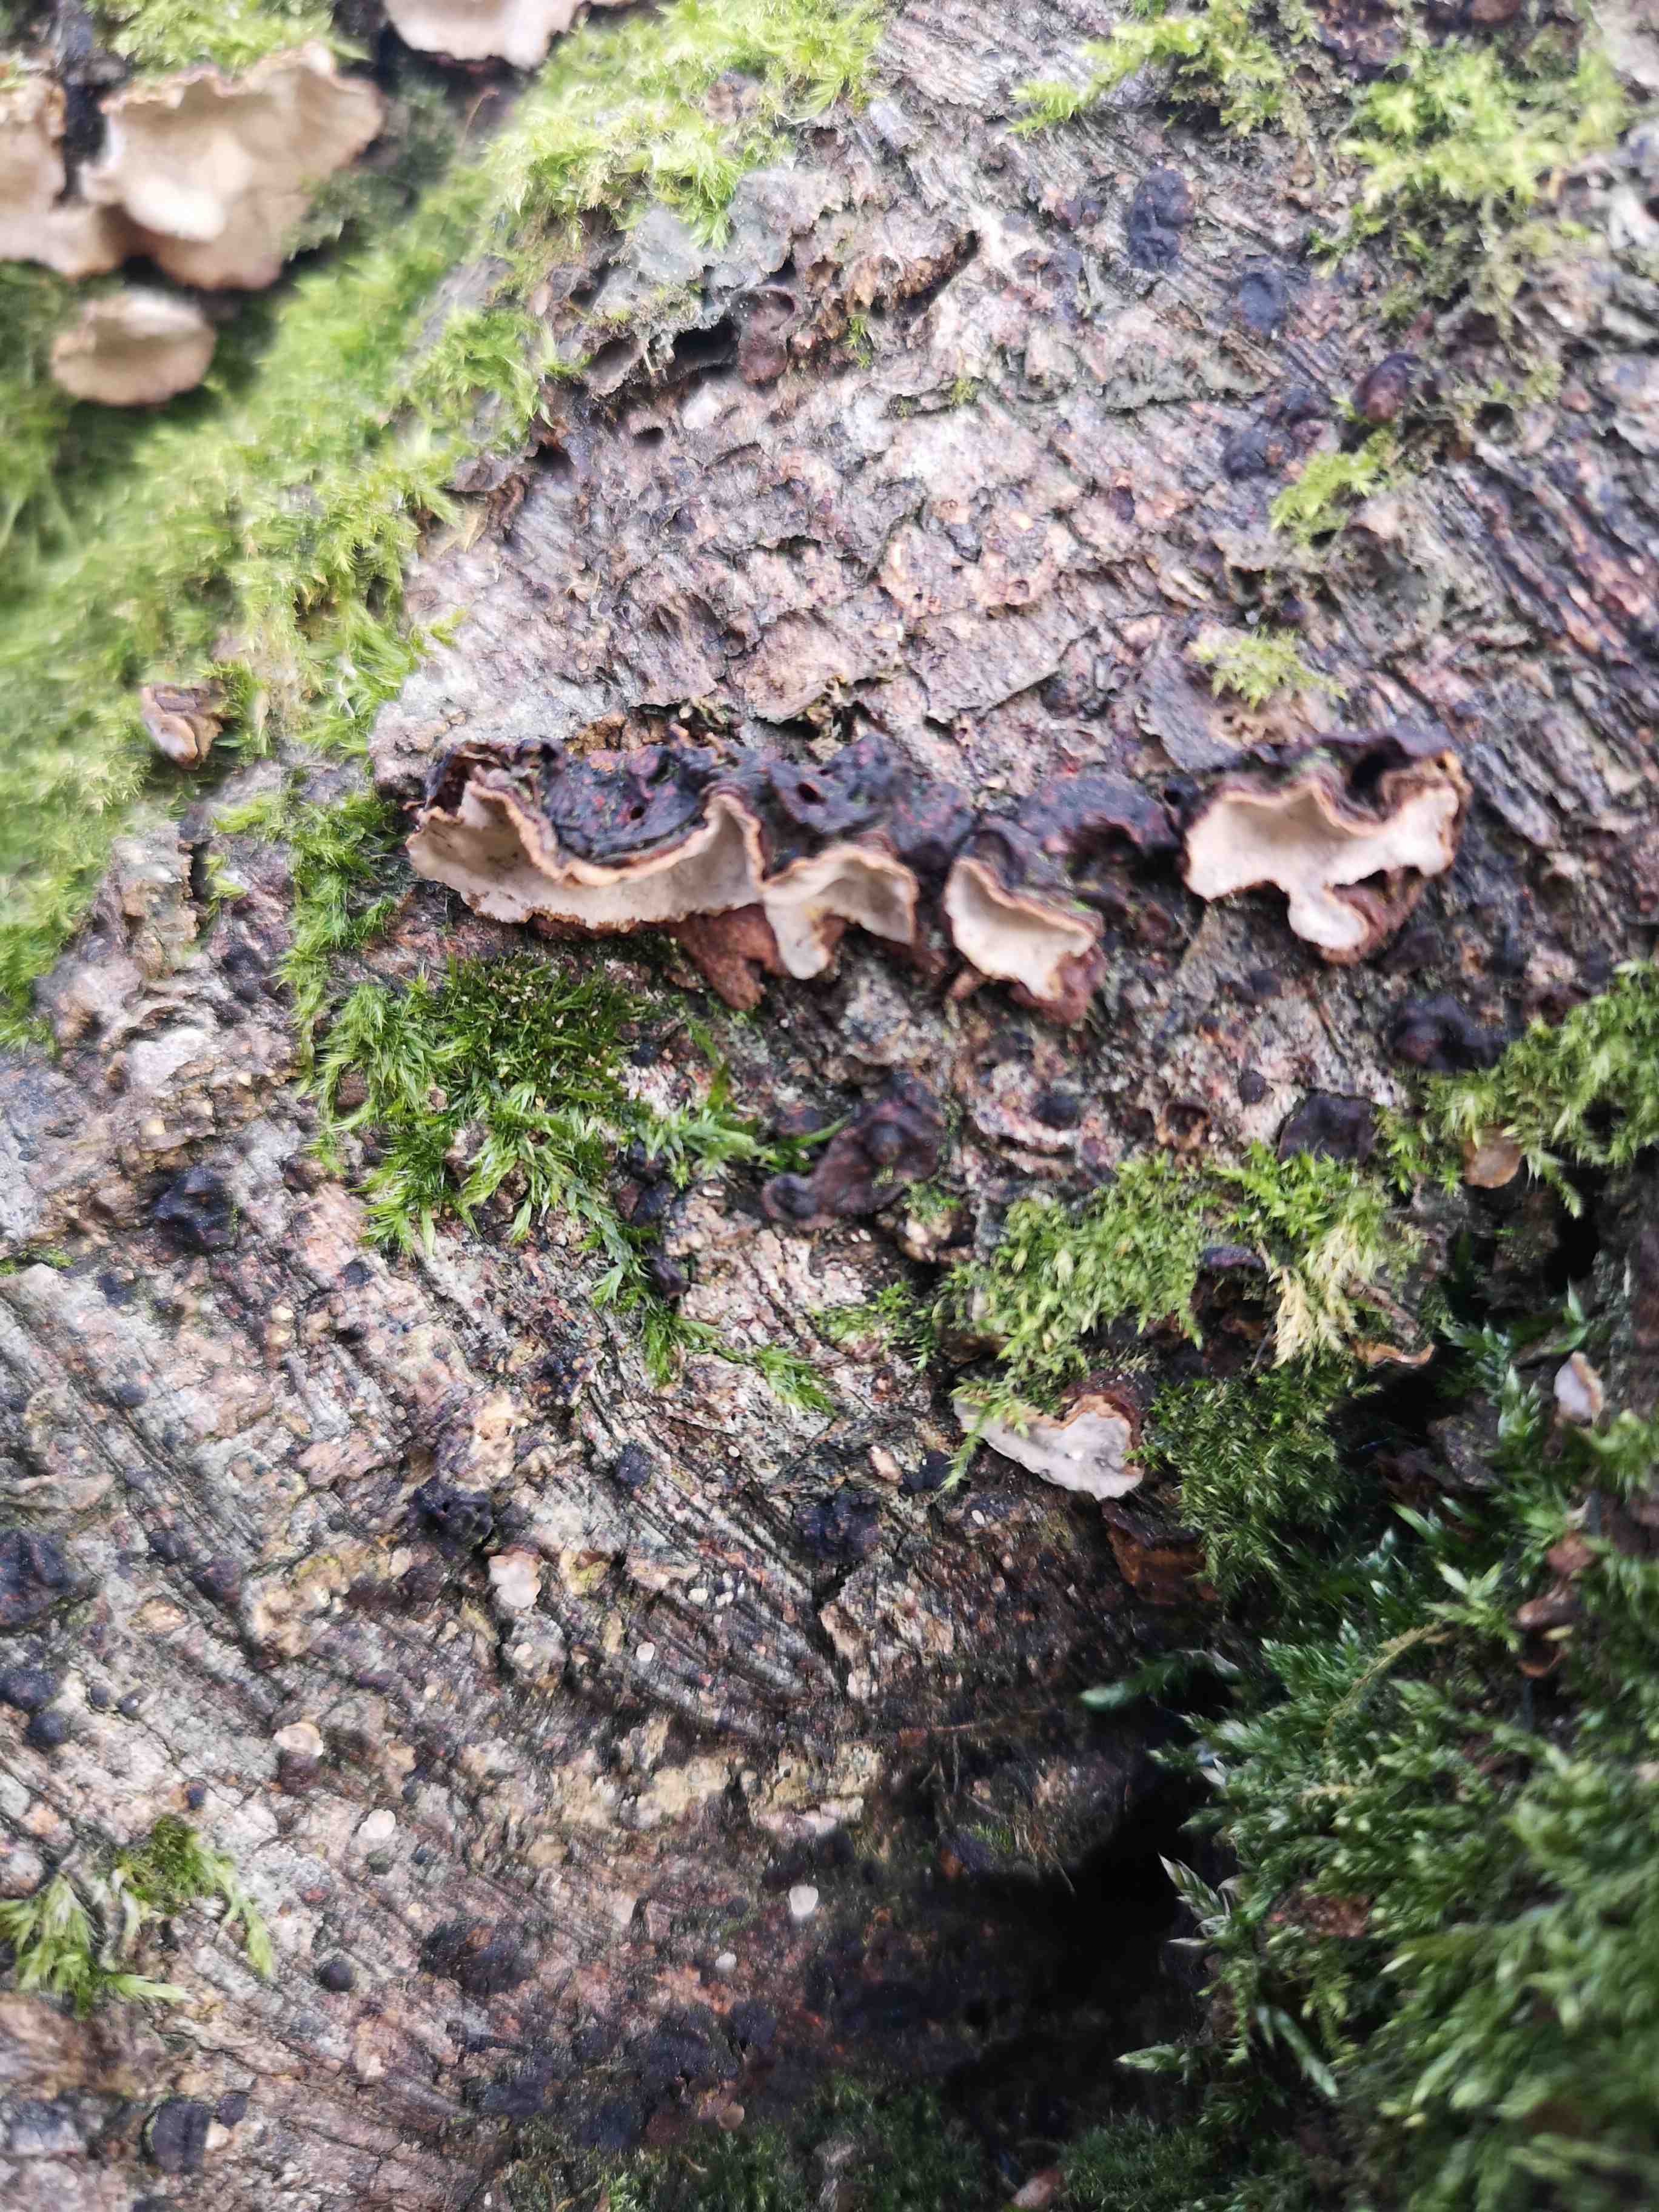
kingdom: Fungi
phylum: Basidiomycota
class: Agaricomycetes
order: Russulales
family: Stereaceae
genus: Stereum
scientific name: Stereum rugosum
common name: rynket lædersvamp
